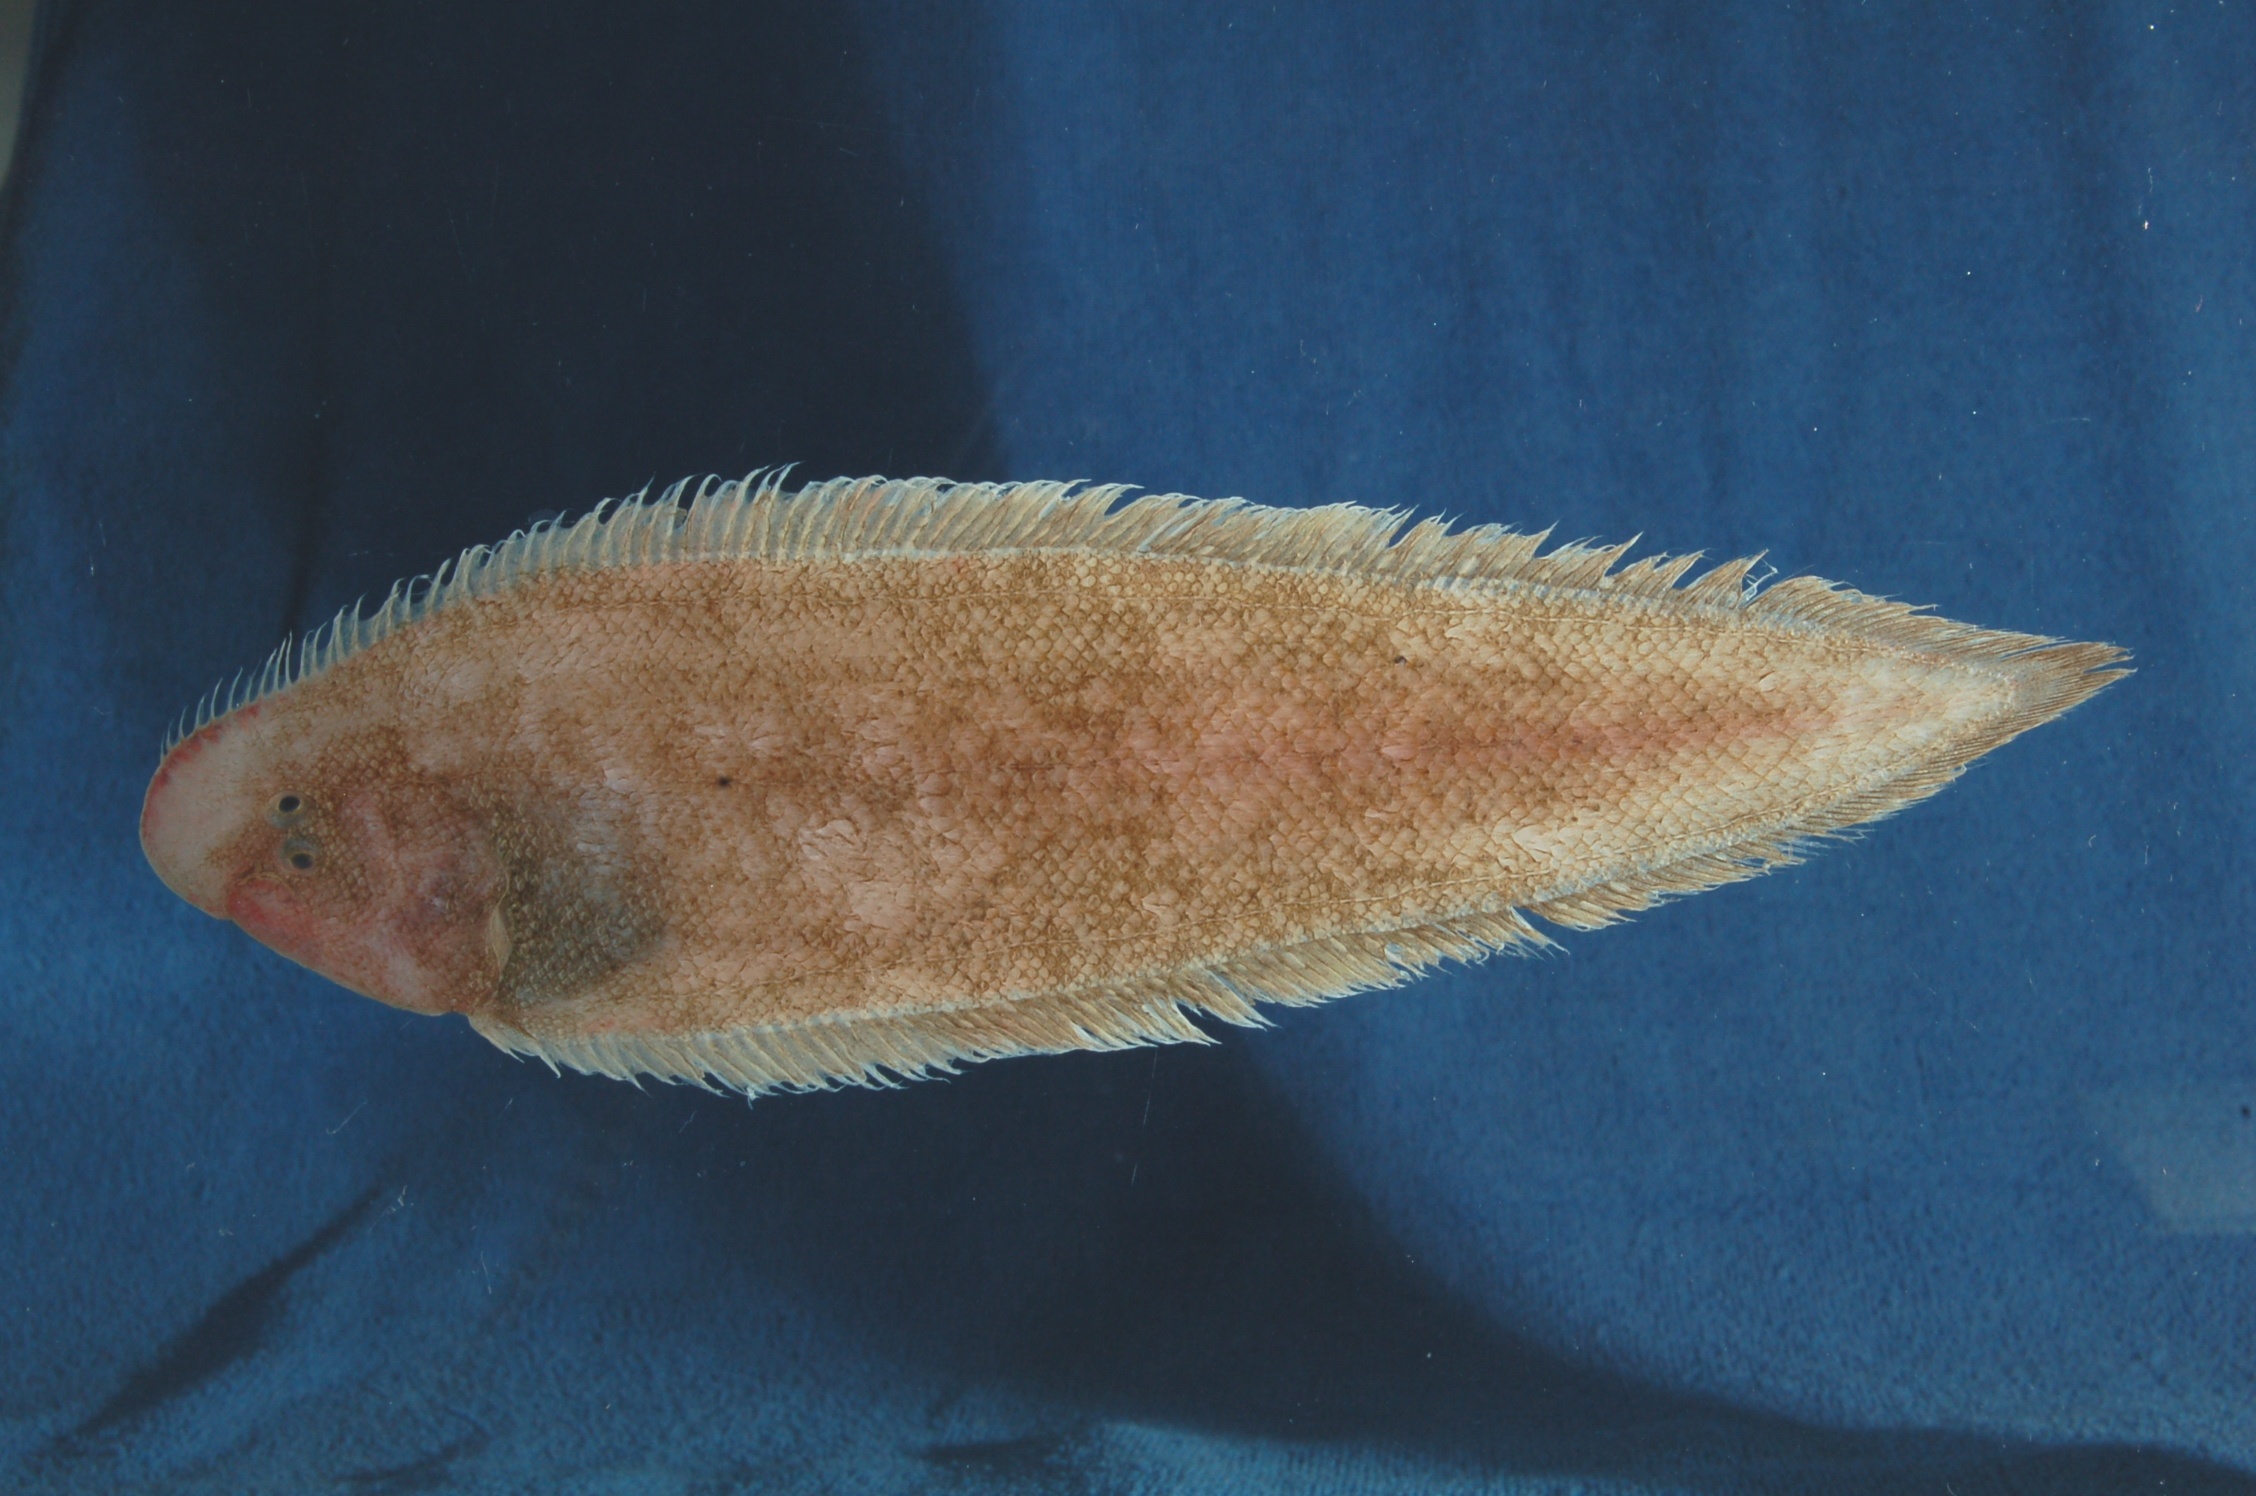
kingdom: Animalia
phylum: Chordata
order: Pleuronectiformes
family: Cynoglossidae
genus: Cynoglossus
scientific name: Cynoglossus zanzibarensis
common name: Redspotted tonguesole
